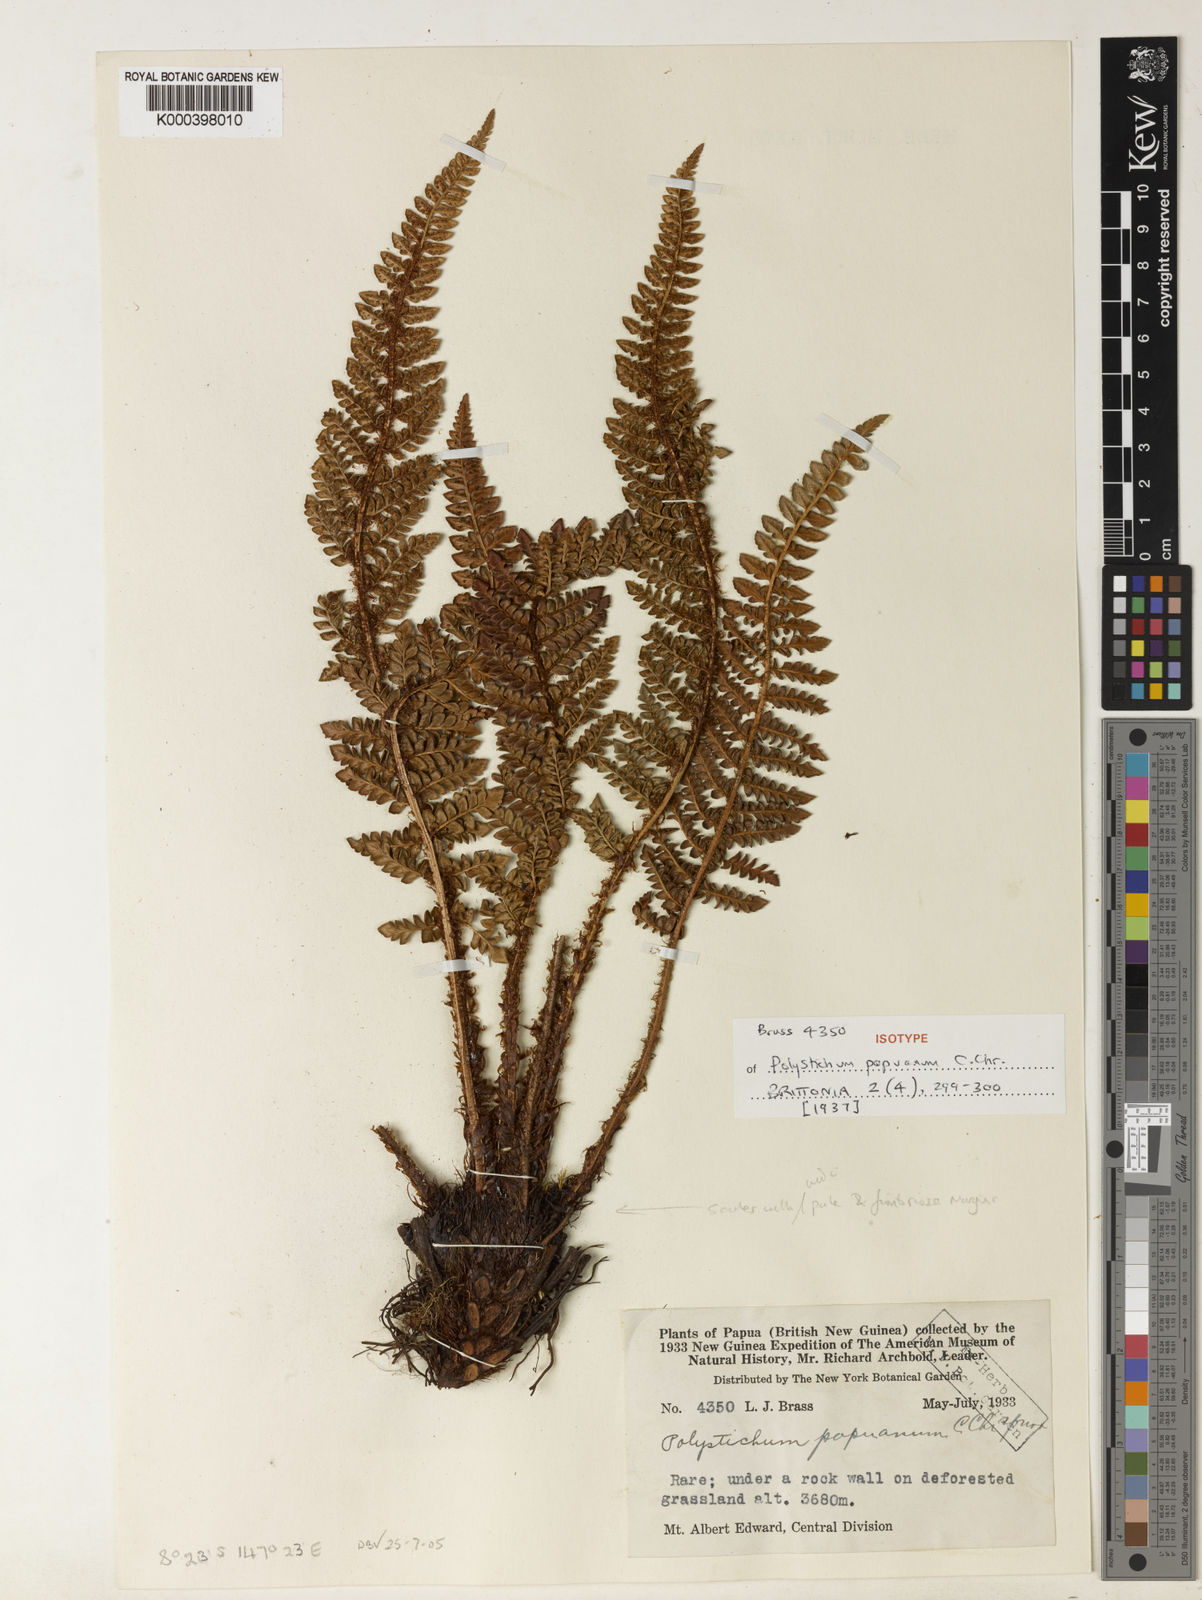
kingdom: Plantae
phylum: Tracheophyta
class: Polypodiopsida
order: Polypodiales
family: Dryopteridaceae
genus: Polystichum
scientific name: Polystichum papuanum
